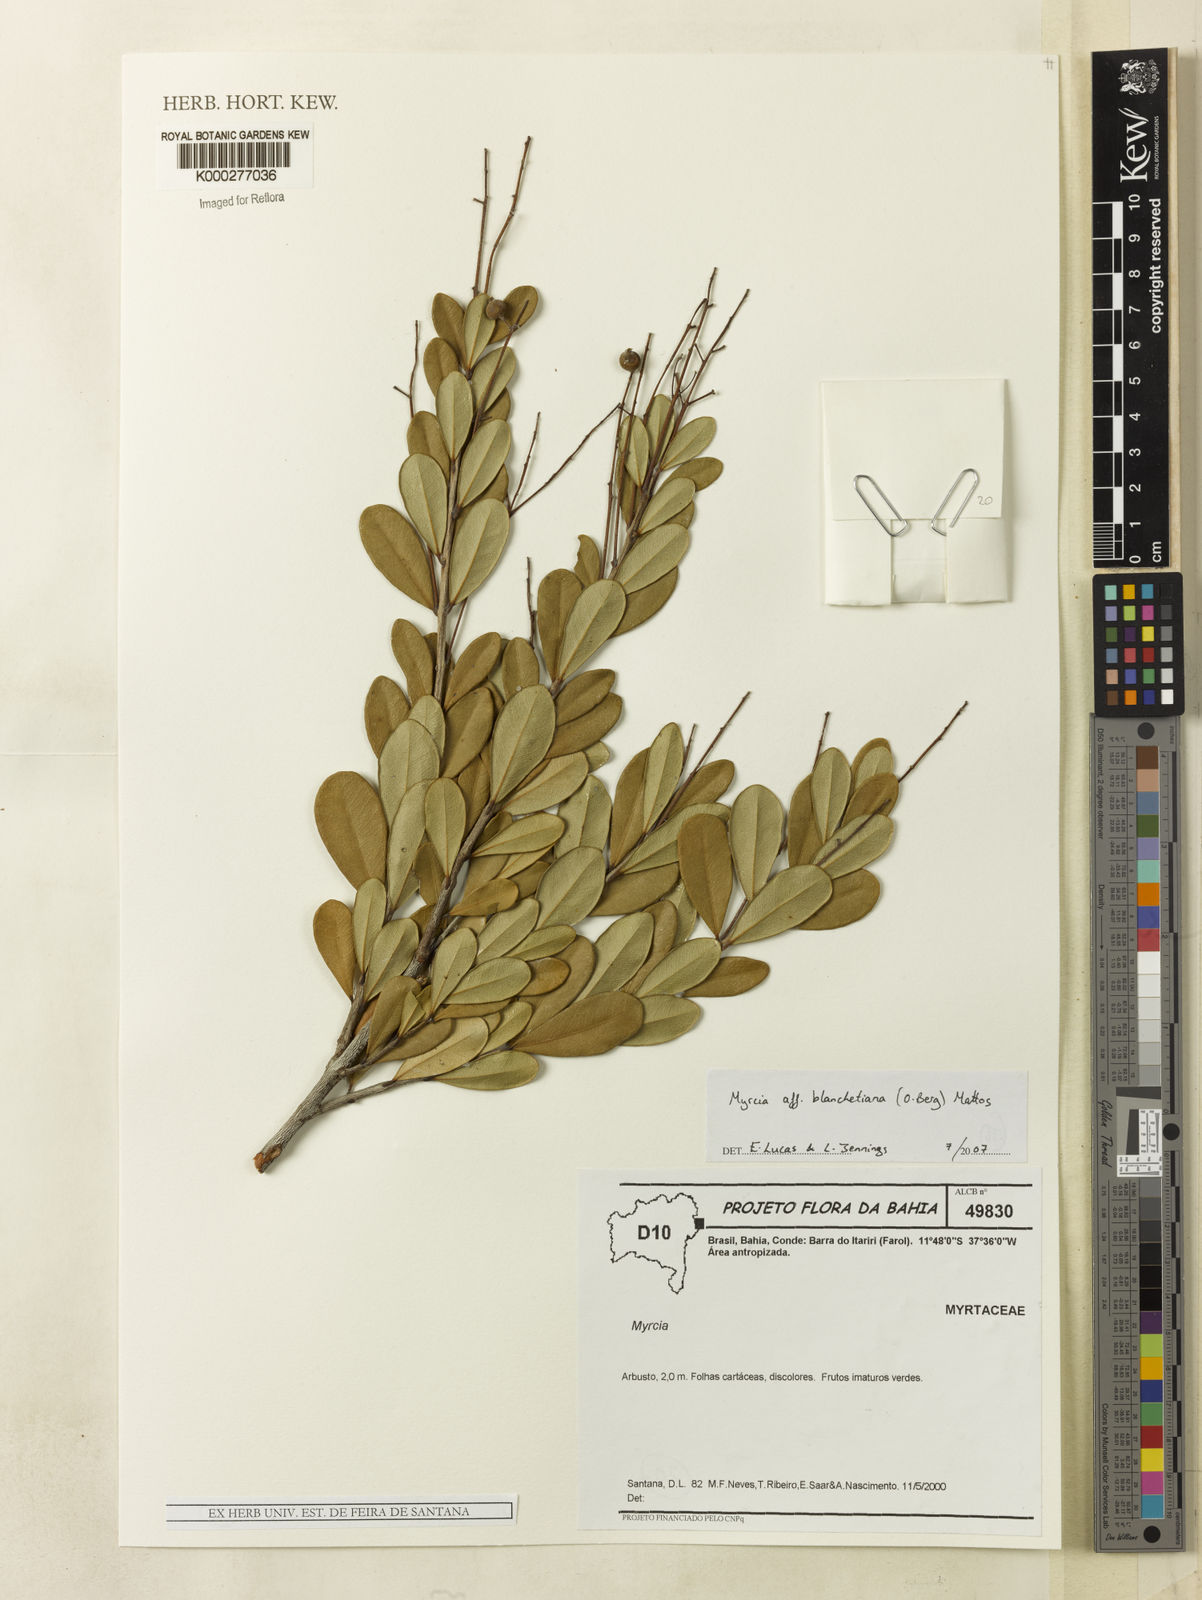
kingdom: Plantae
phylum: Tracheophyta
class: Magnoliopsida
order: Myrtales
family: Myrtaceae
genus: Myrcia
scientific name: Myrcia blanchetiana
